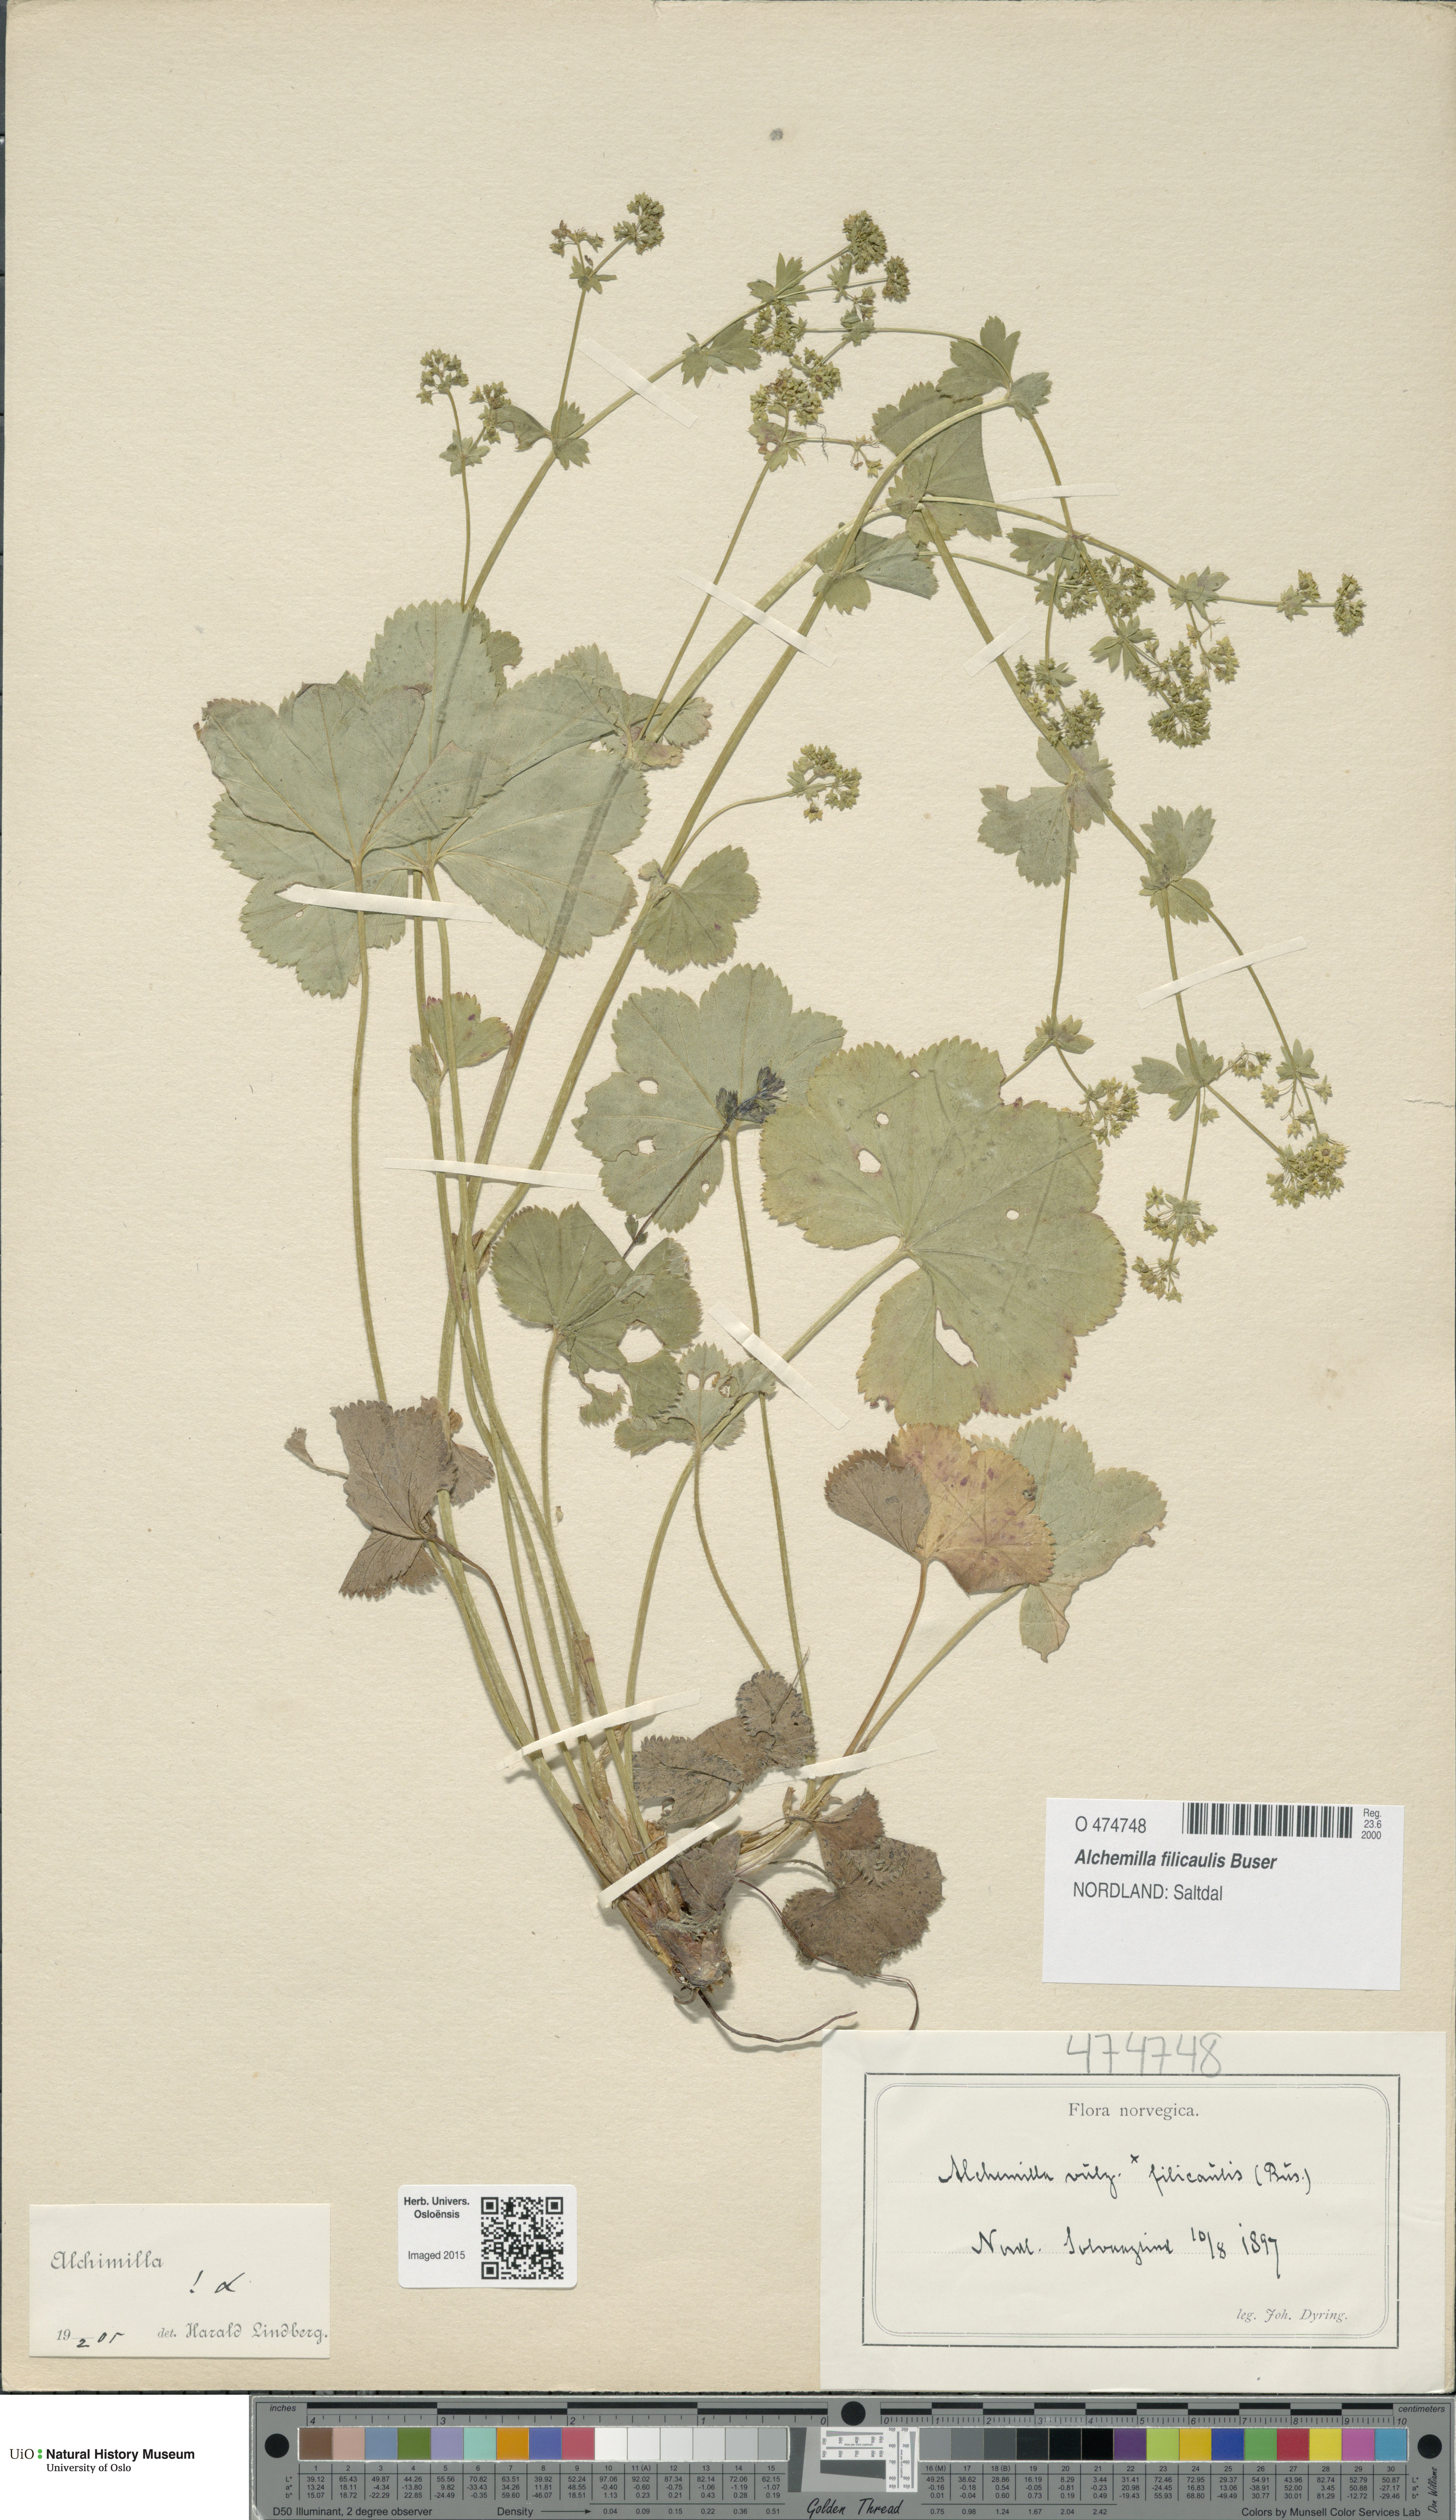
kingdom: Plantae
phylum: Tracheophyta
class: Magnoliopsida
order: Rosales
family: Rosaceae
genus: Alchemilla
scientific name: Alchemilla filicaulis
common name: Hairy lady's-mantle
